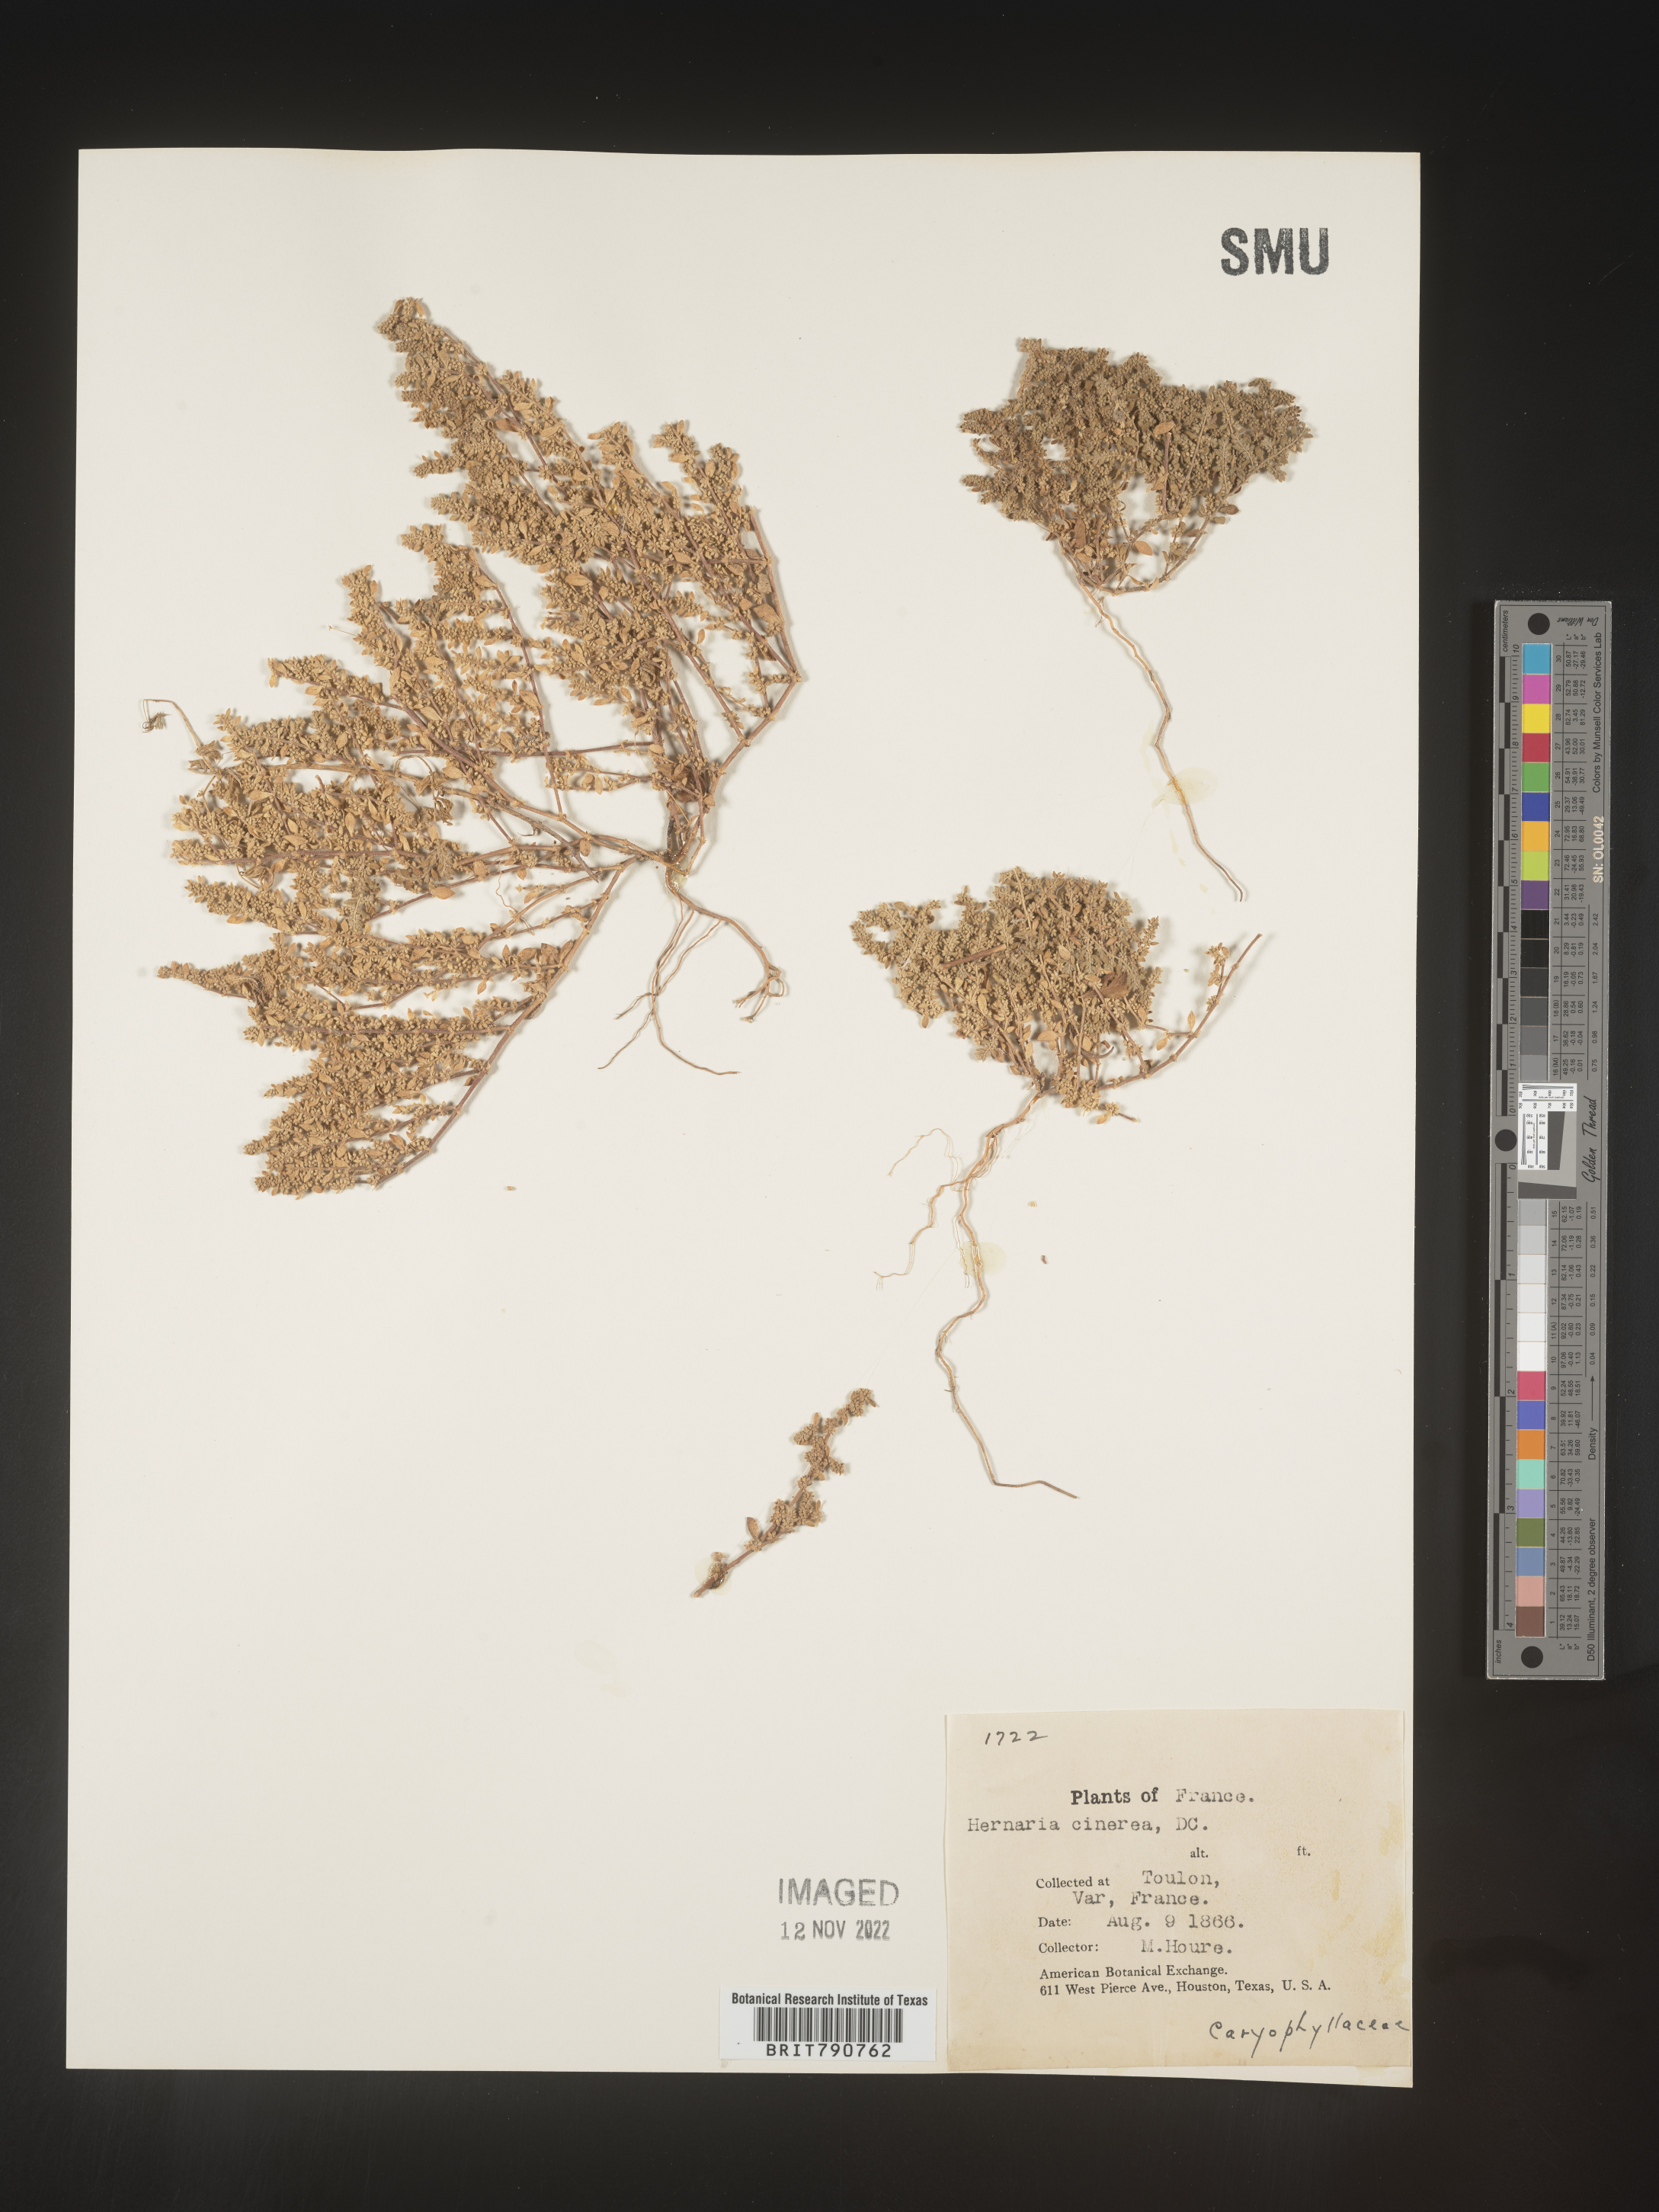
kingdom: Plantae
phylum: Tracheophyta
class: Magnoliopsida
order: Caryophyllales
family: Caryophyllaceae
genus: Herniaria
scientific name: Herniaria
